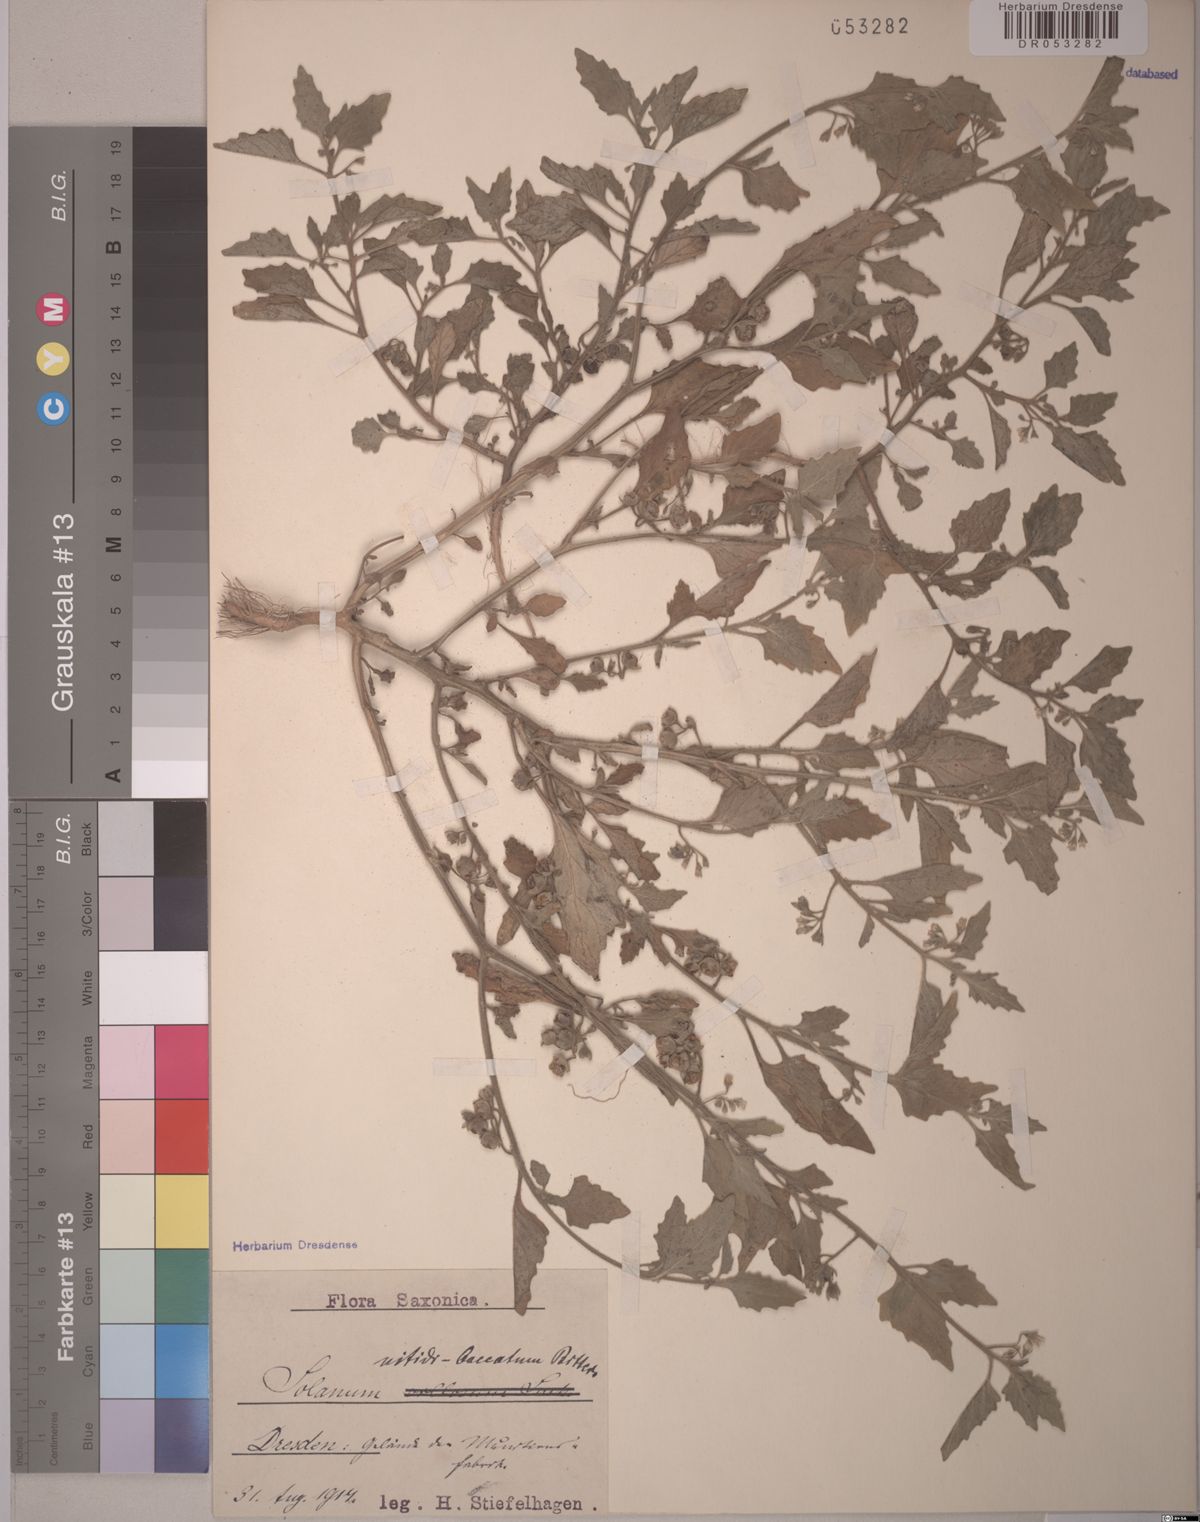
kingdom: Plantae
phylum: Tracheophyta
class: Magnoliopsida
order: Solanales
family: Solanaceae
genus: Solanum
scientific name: Solanum nitidibaccatum
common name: Hairy nightshade
